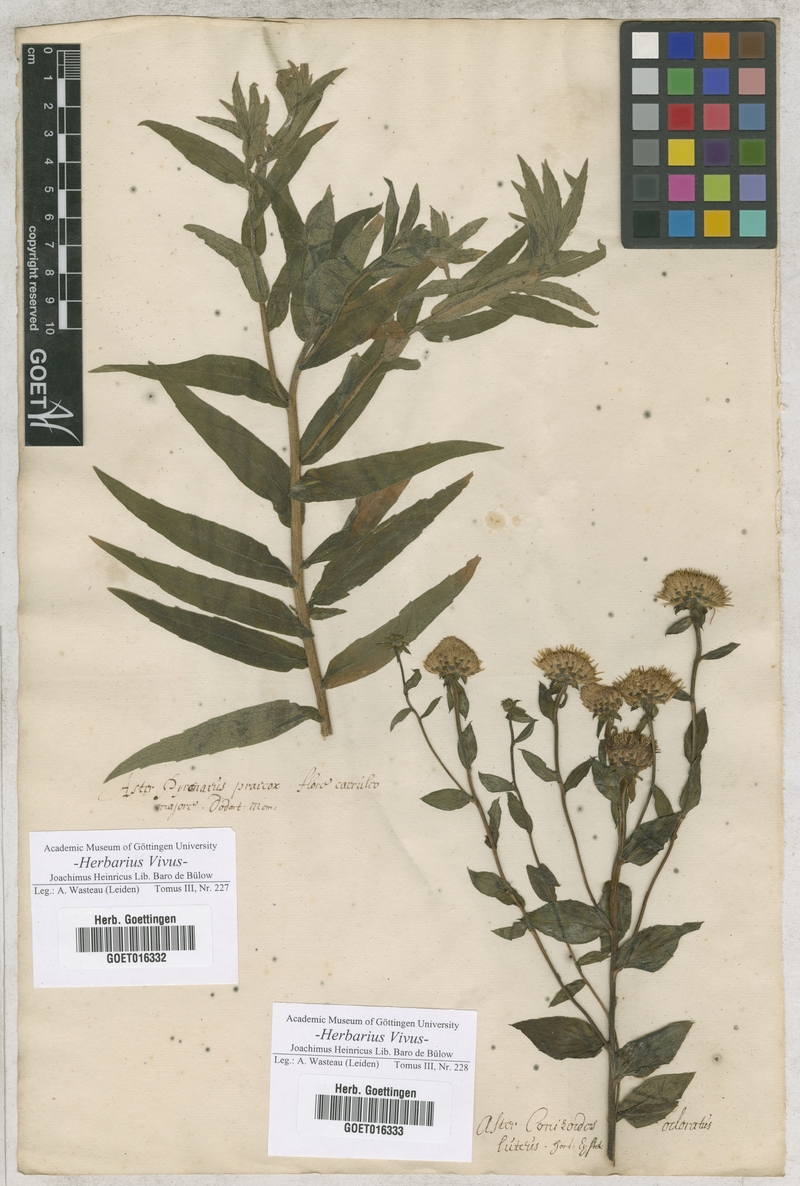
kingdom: Plantae
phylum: Tracheophyta
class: Magnoliopsida
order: Asterales
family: Asteraceae
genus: Aster
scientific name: Aster
